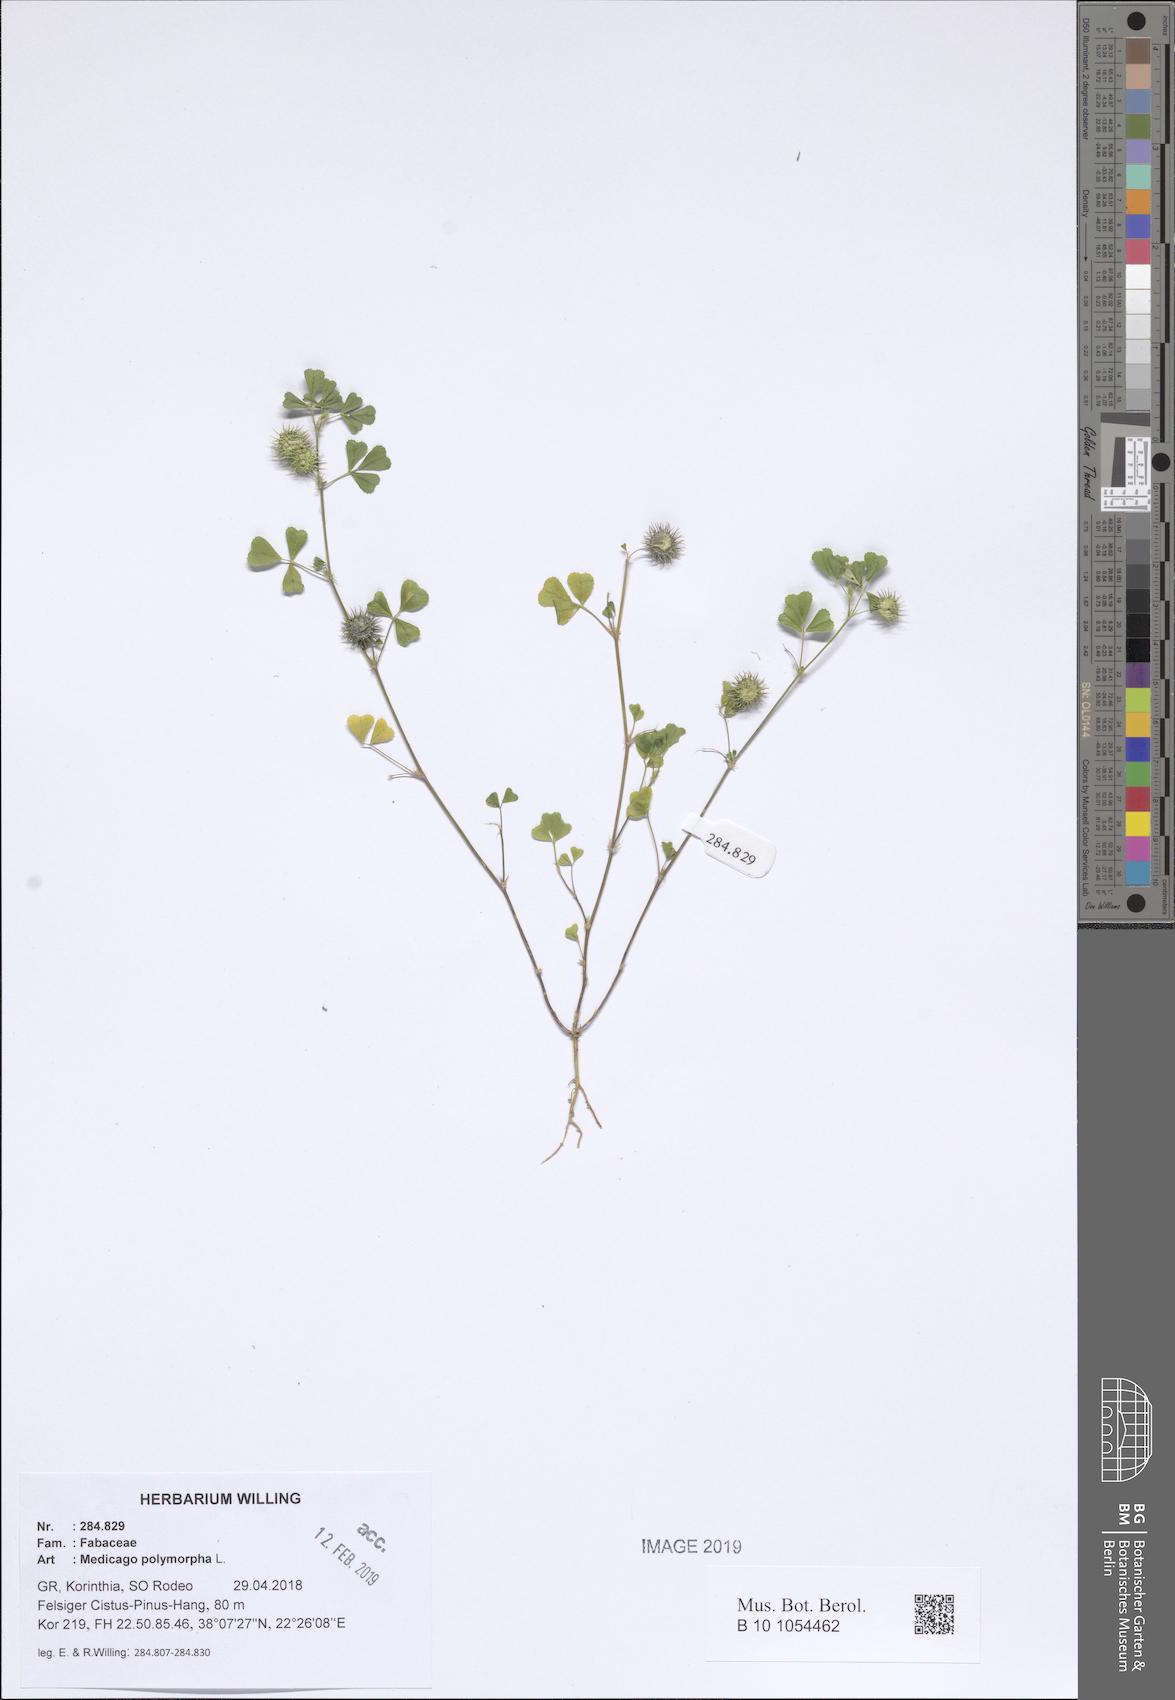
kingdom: Plantae
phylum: Tracheophyta
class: Magnoliopsida
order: Fabales
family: Fabaceae
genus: Medicago
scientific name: Medicago polymorpha
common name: Burclover
